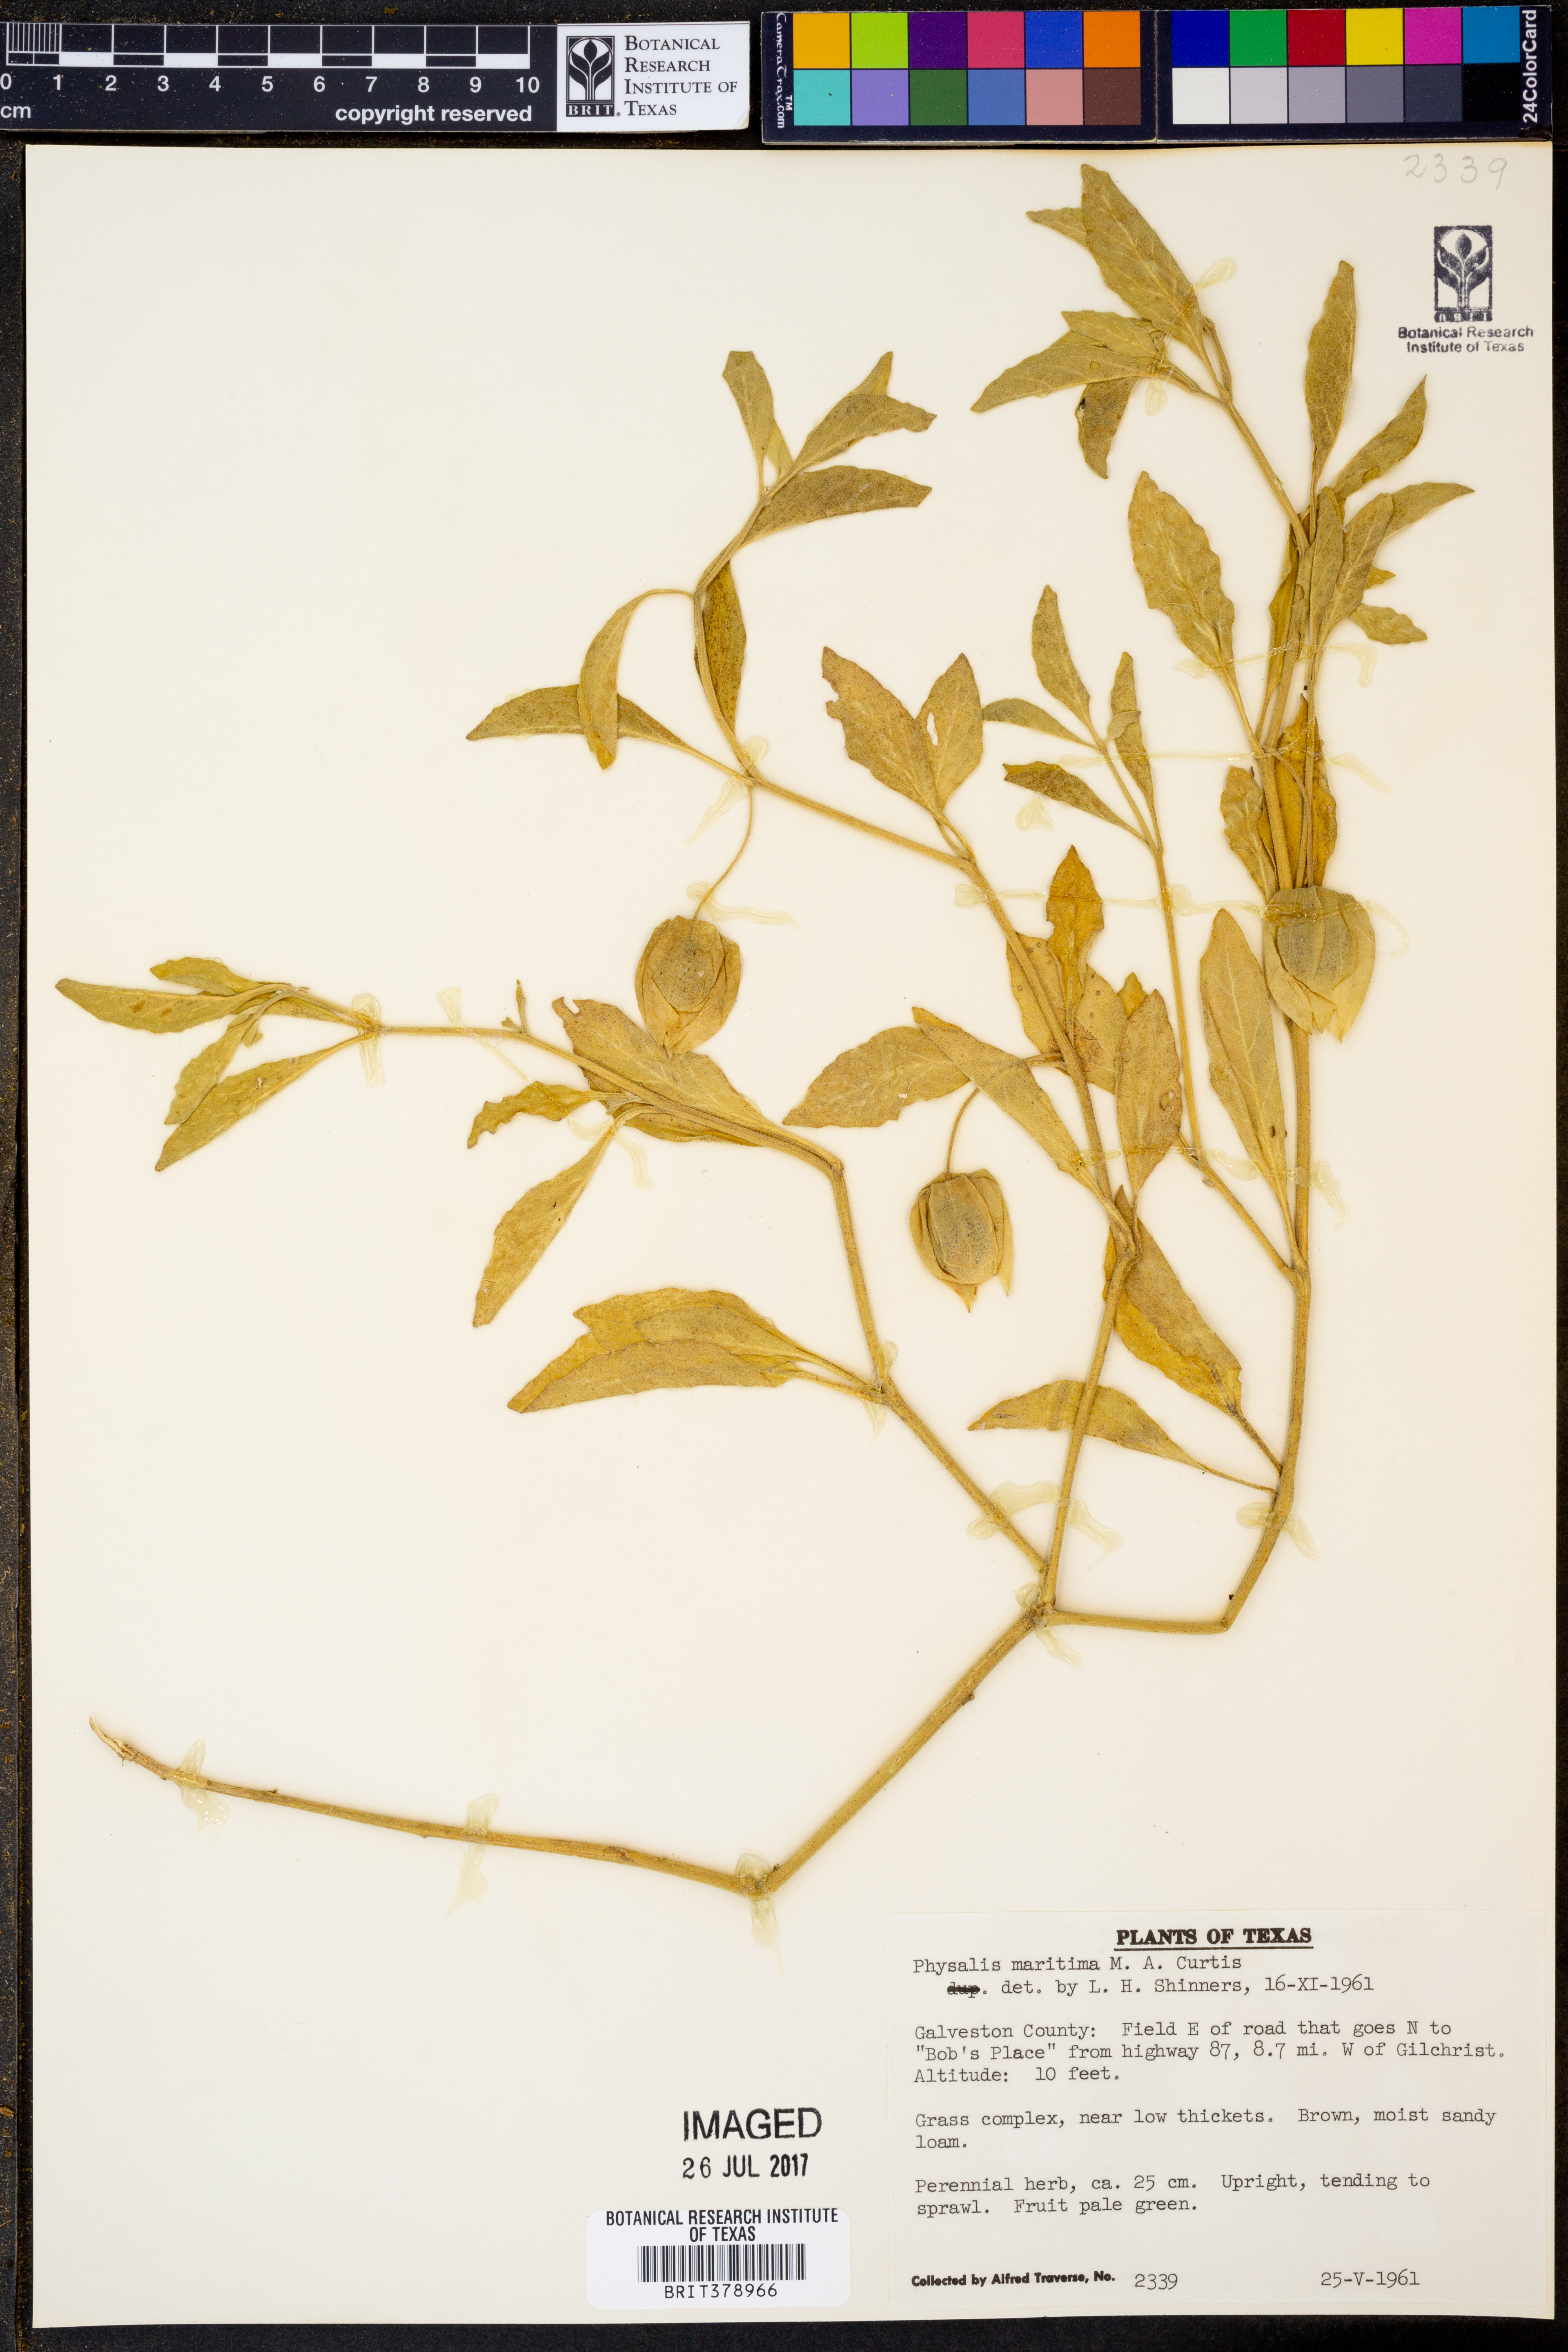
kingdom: Plantae
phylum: Tracheophyta
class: Magnoliopsida
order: Solanales
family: Solanaceae
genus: Physalis
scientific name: Physalis walteri
